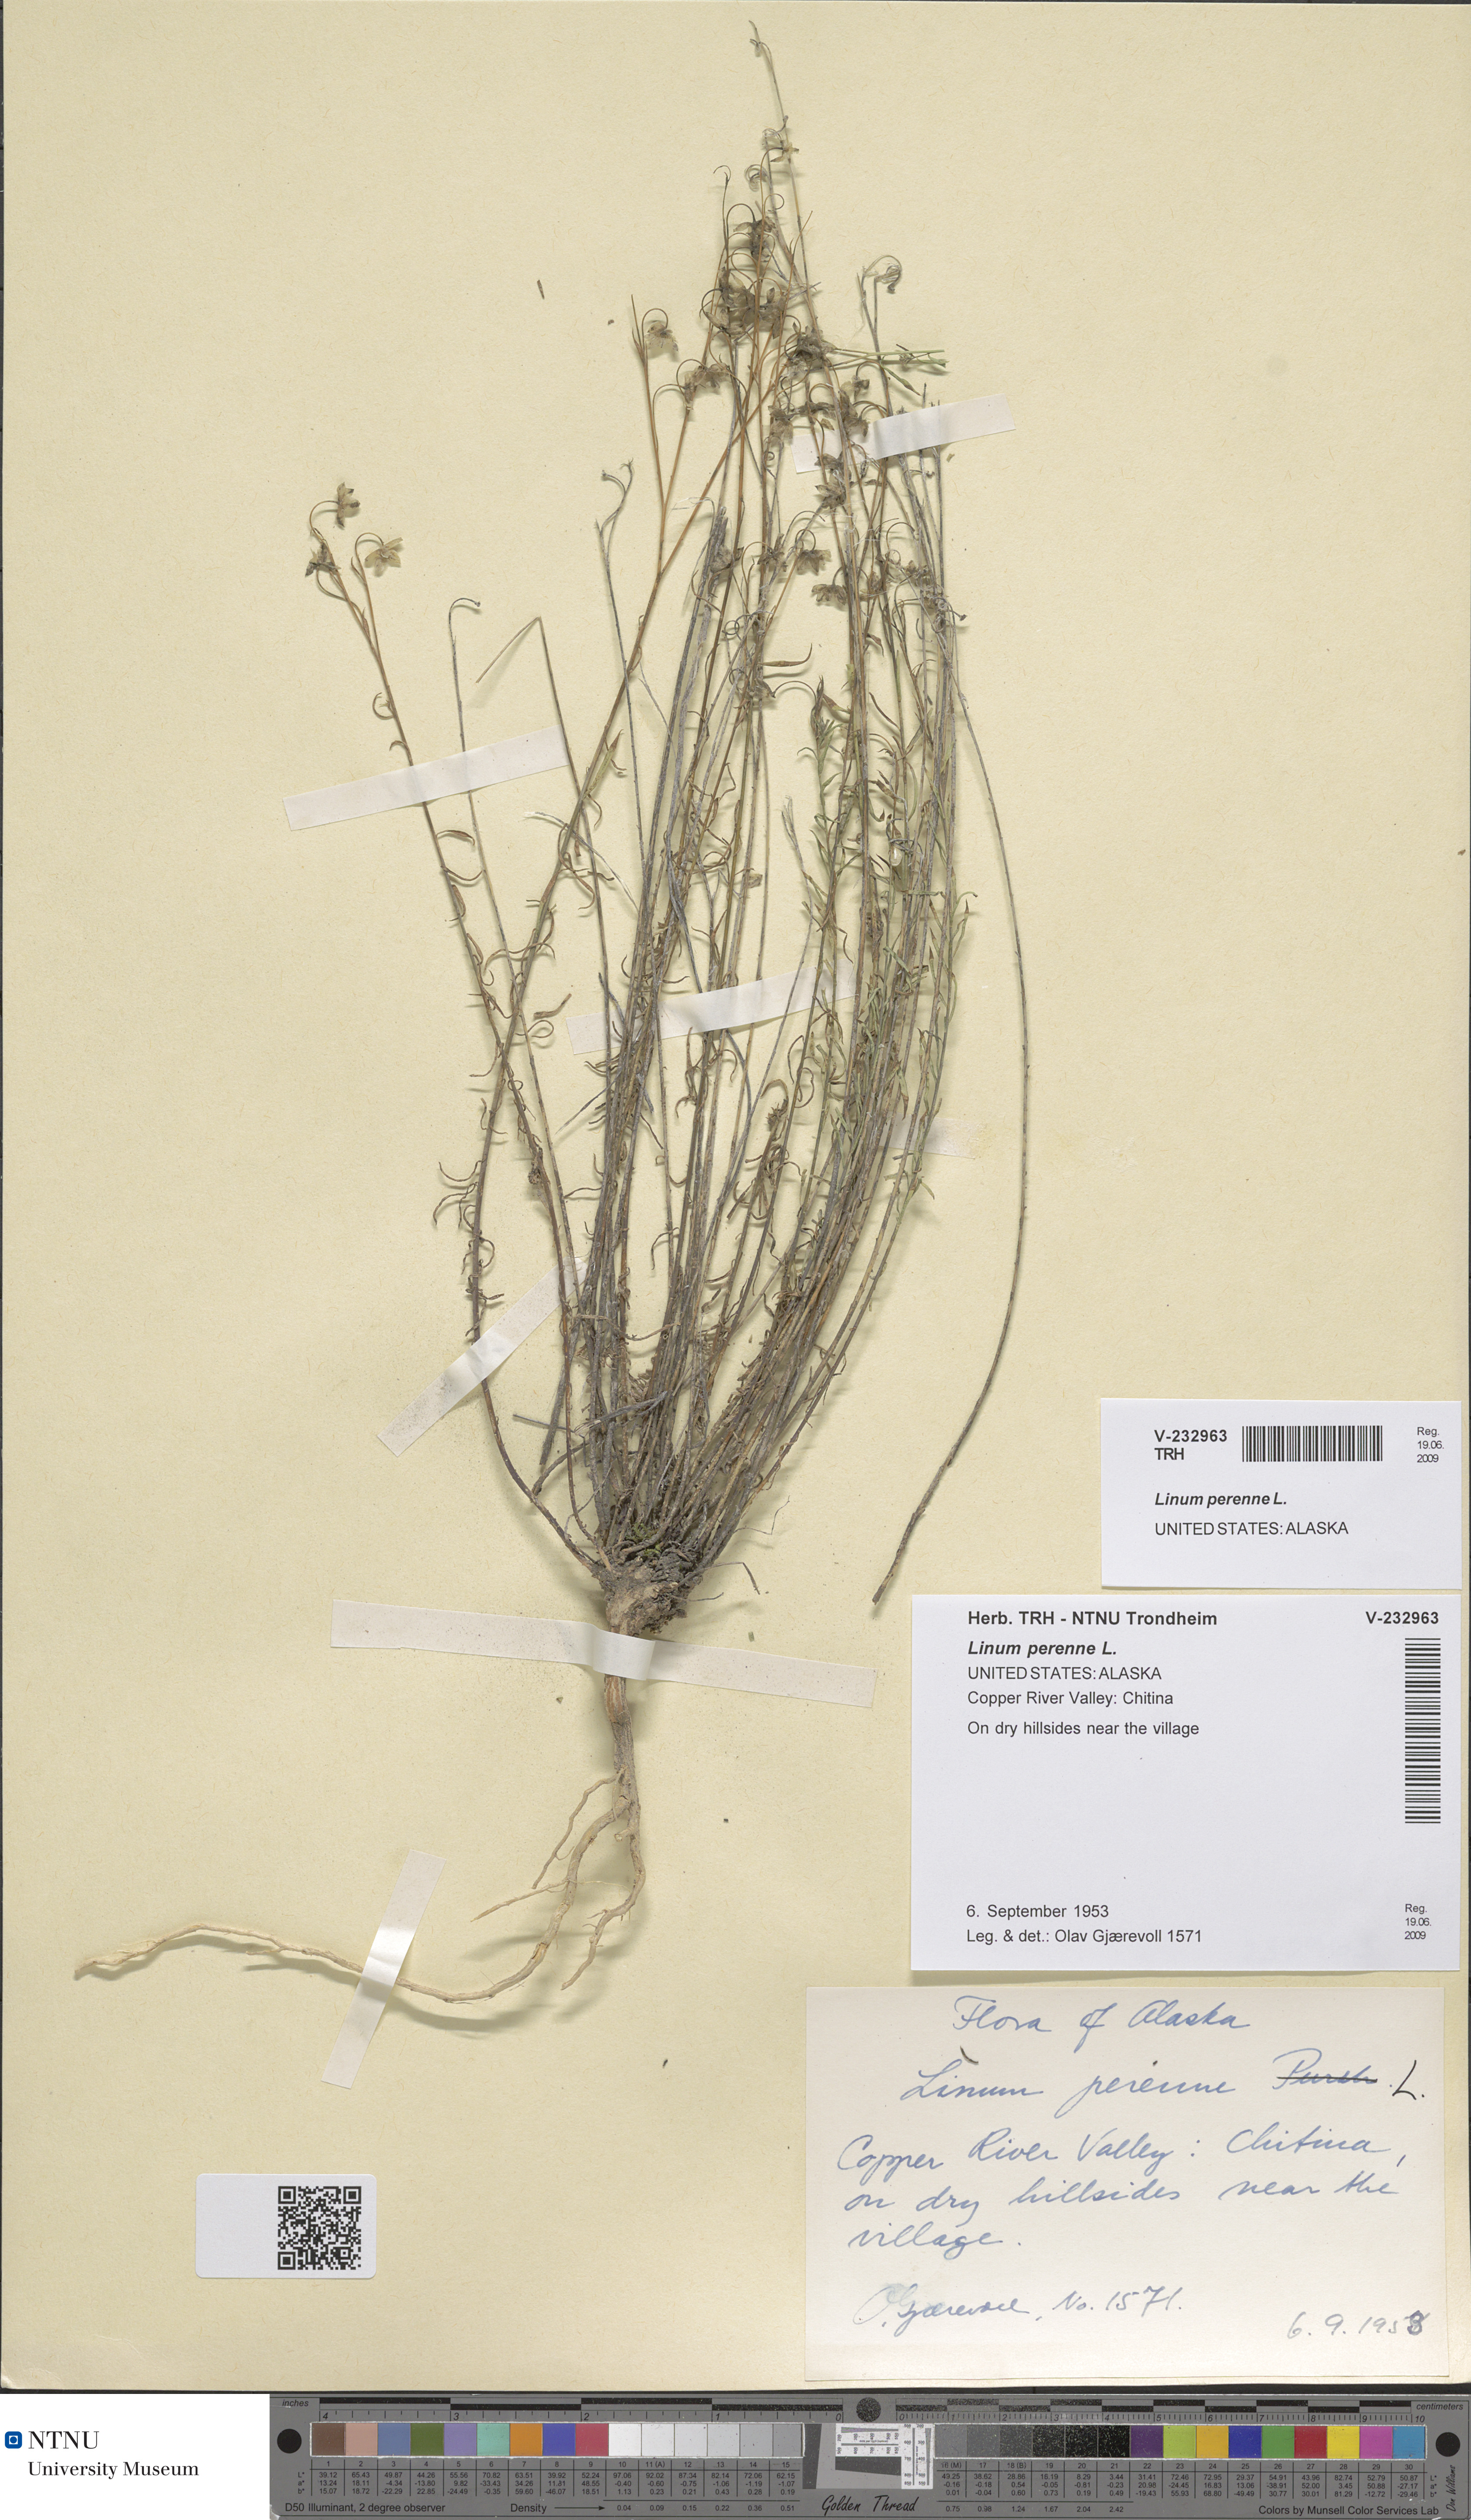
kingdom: Plantae
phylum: Tracheophyta
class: Magnoliopsida
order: Malpighiales
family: Linaceae
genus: Linum
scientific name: Linum perenne
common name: Blue flax
